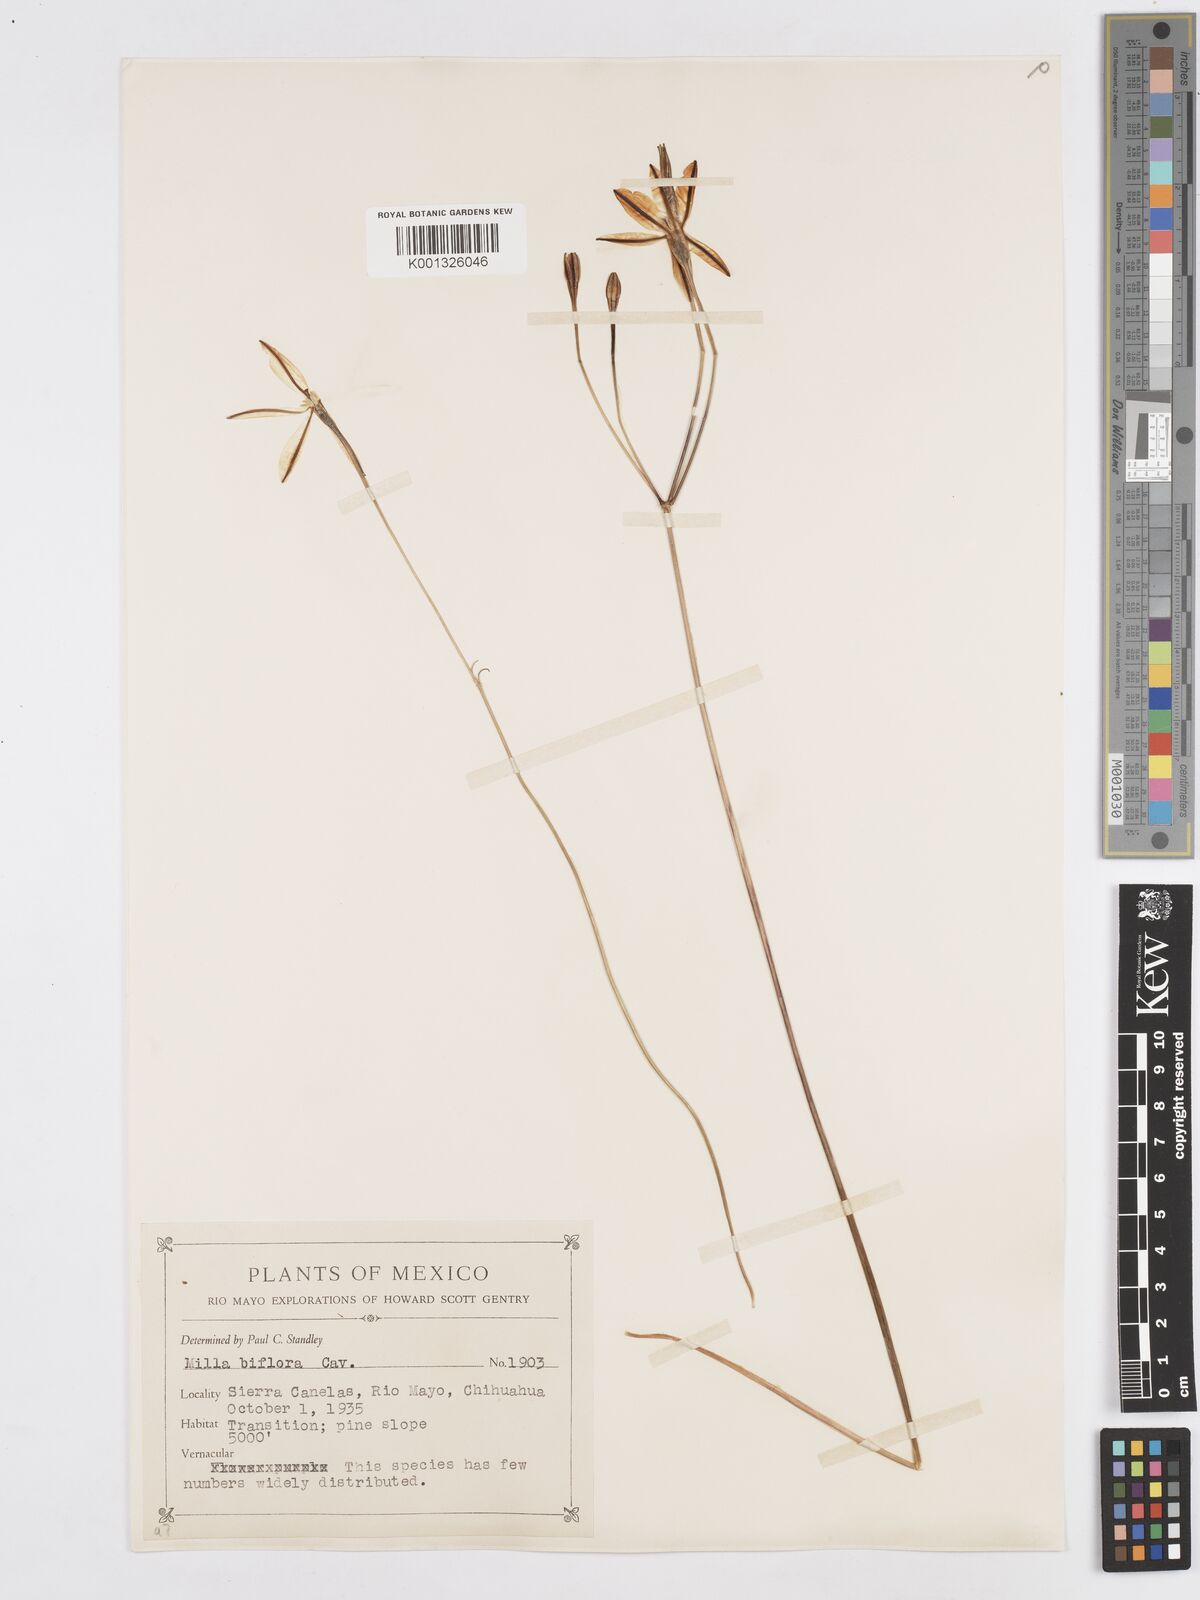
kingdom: Plantae
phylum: Tracheophyta
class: Liliopsida
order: Asparagales
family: Asparagaceae
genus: Milla
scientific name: Milla biflora
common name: Mexican-star
